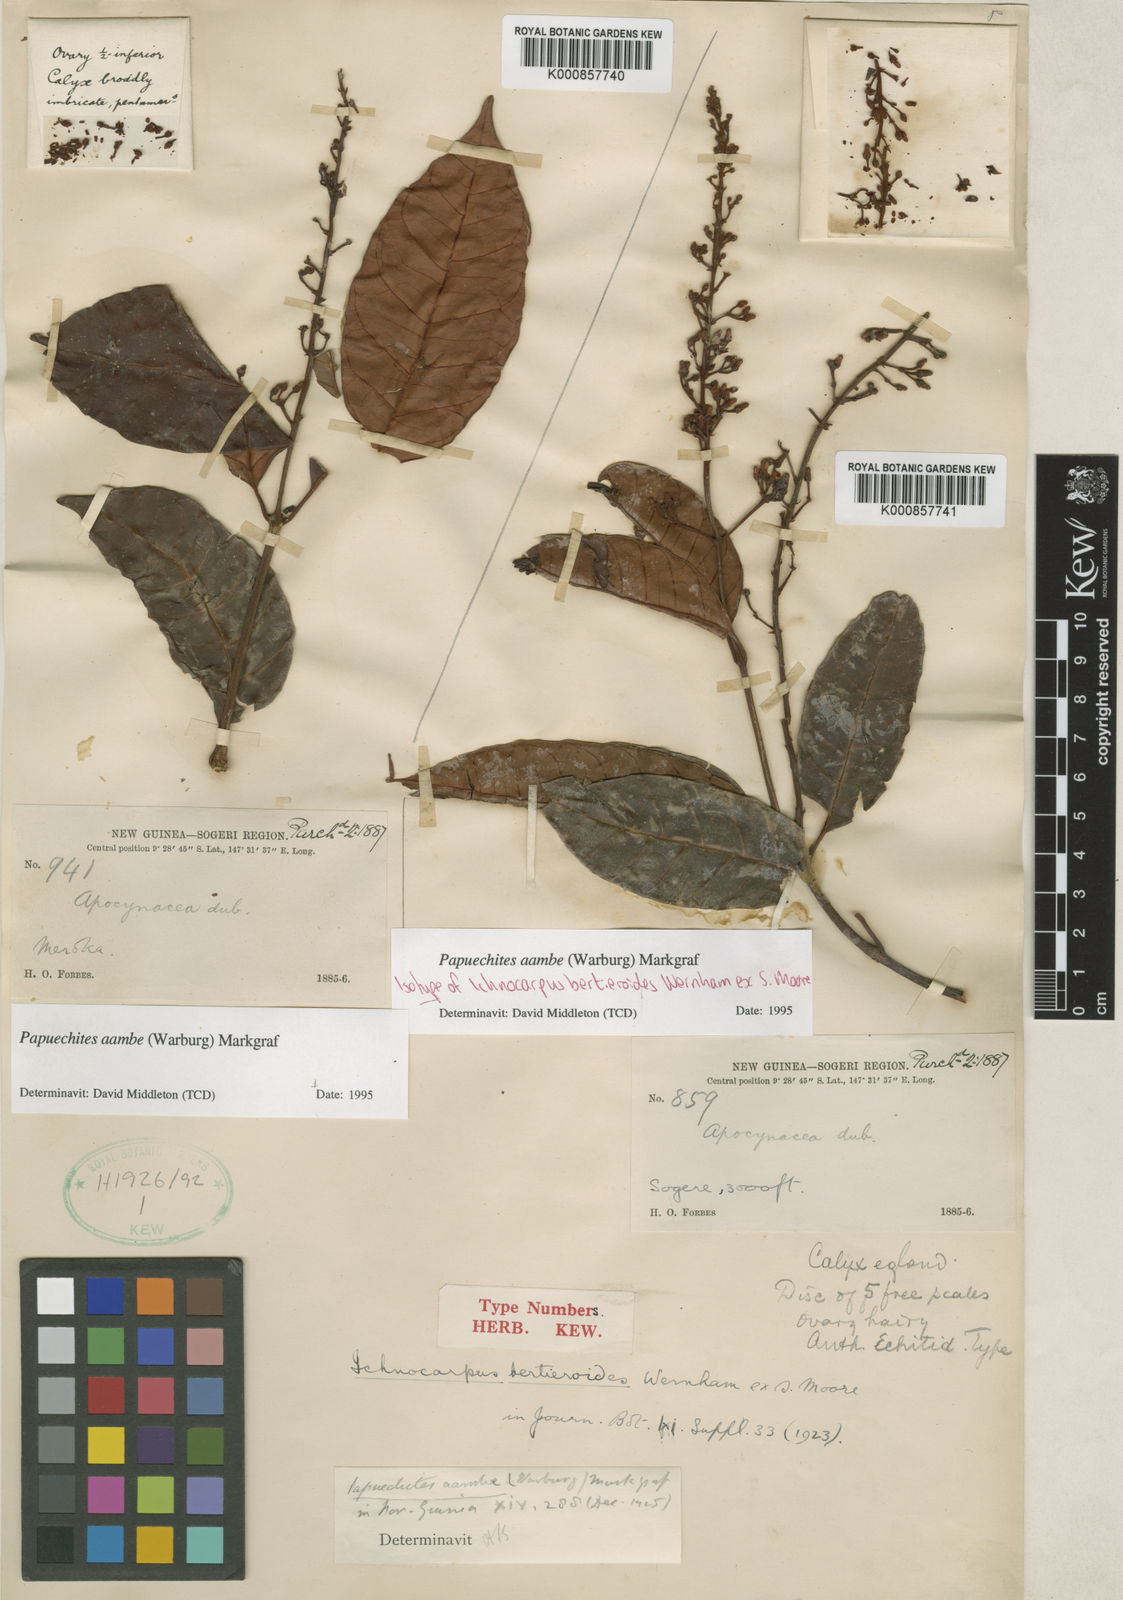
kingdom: Plantae
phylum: Tracheophyta
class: Magnoliopsida
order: Gentianales
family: Apocynaceae
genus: Papuechites
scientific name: Papuechites aambe
